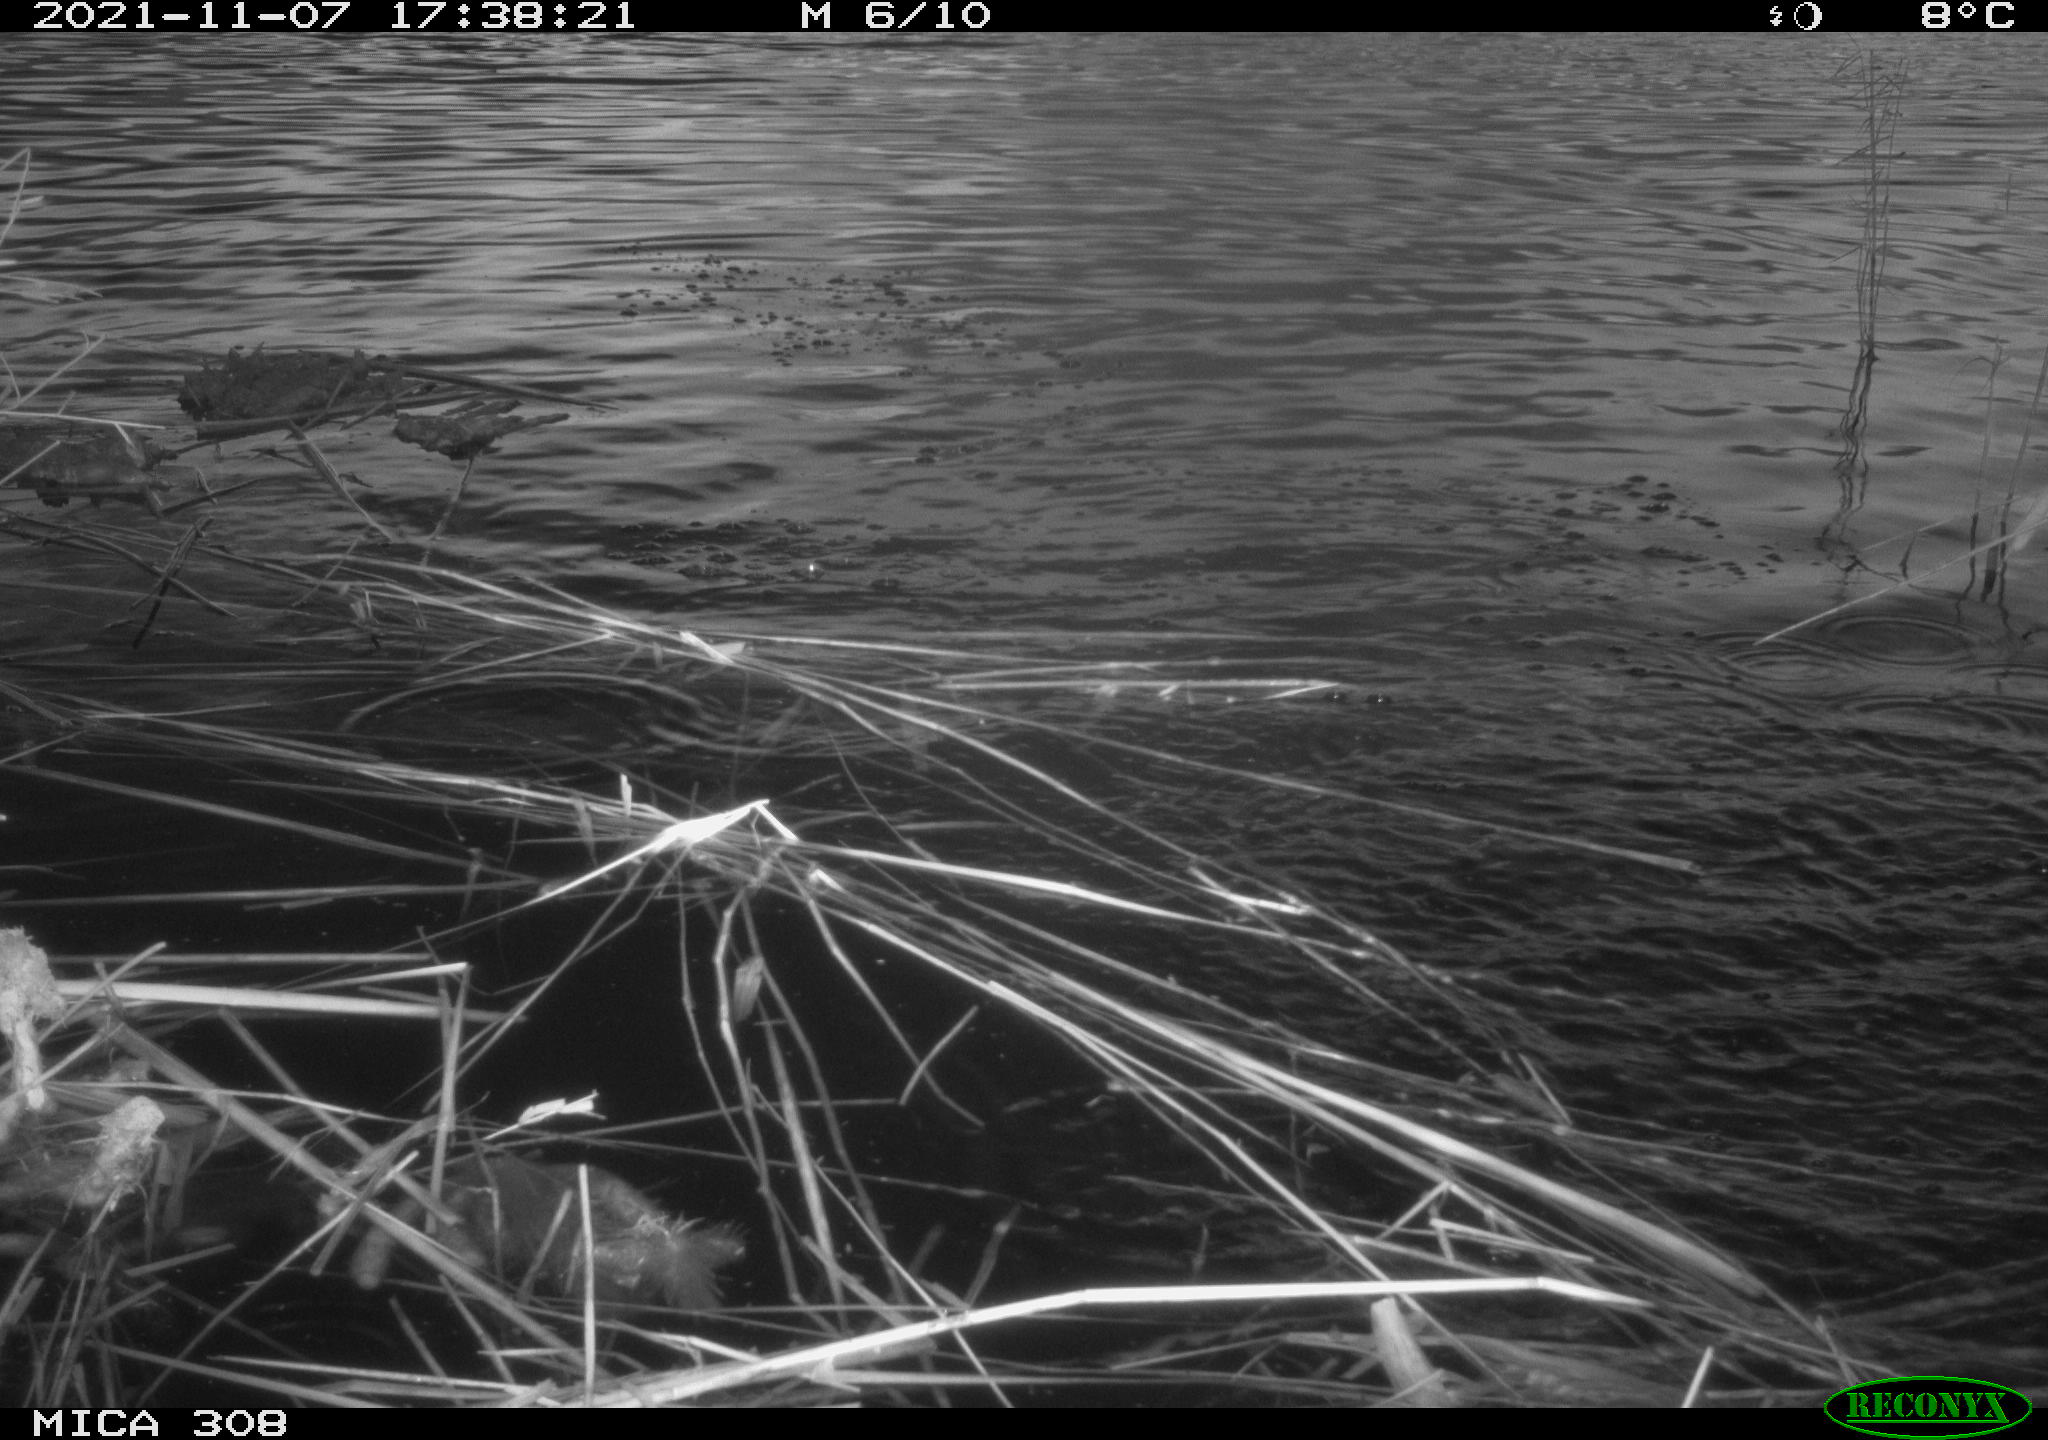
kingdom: Animalia
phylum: Chordata
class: Aves
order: Gruiformes
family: Rallidae
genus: Fulica
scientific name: Fulica atra
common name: Eurasian coot
